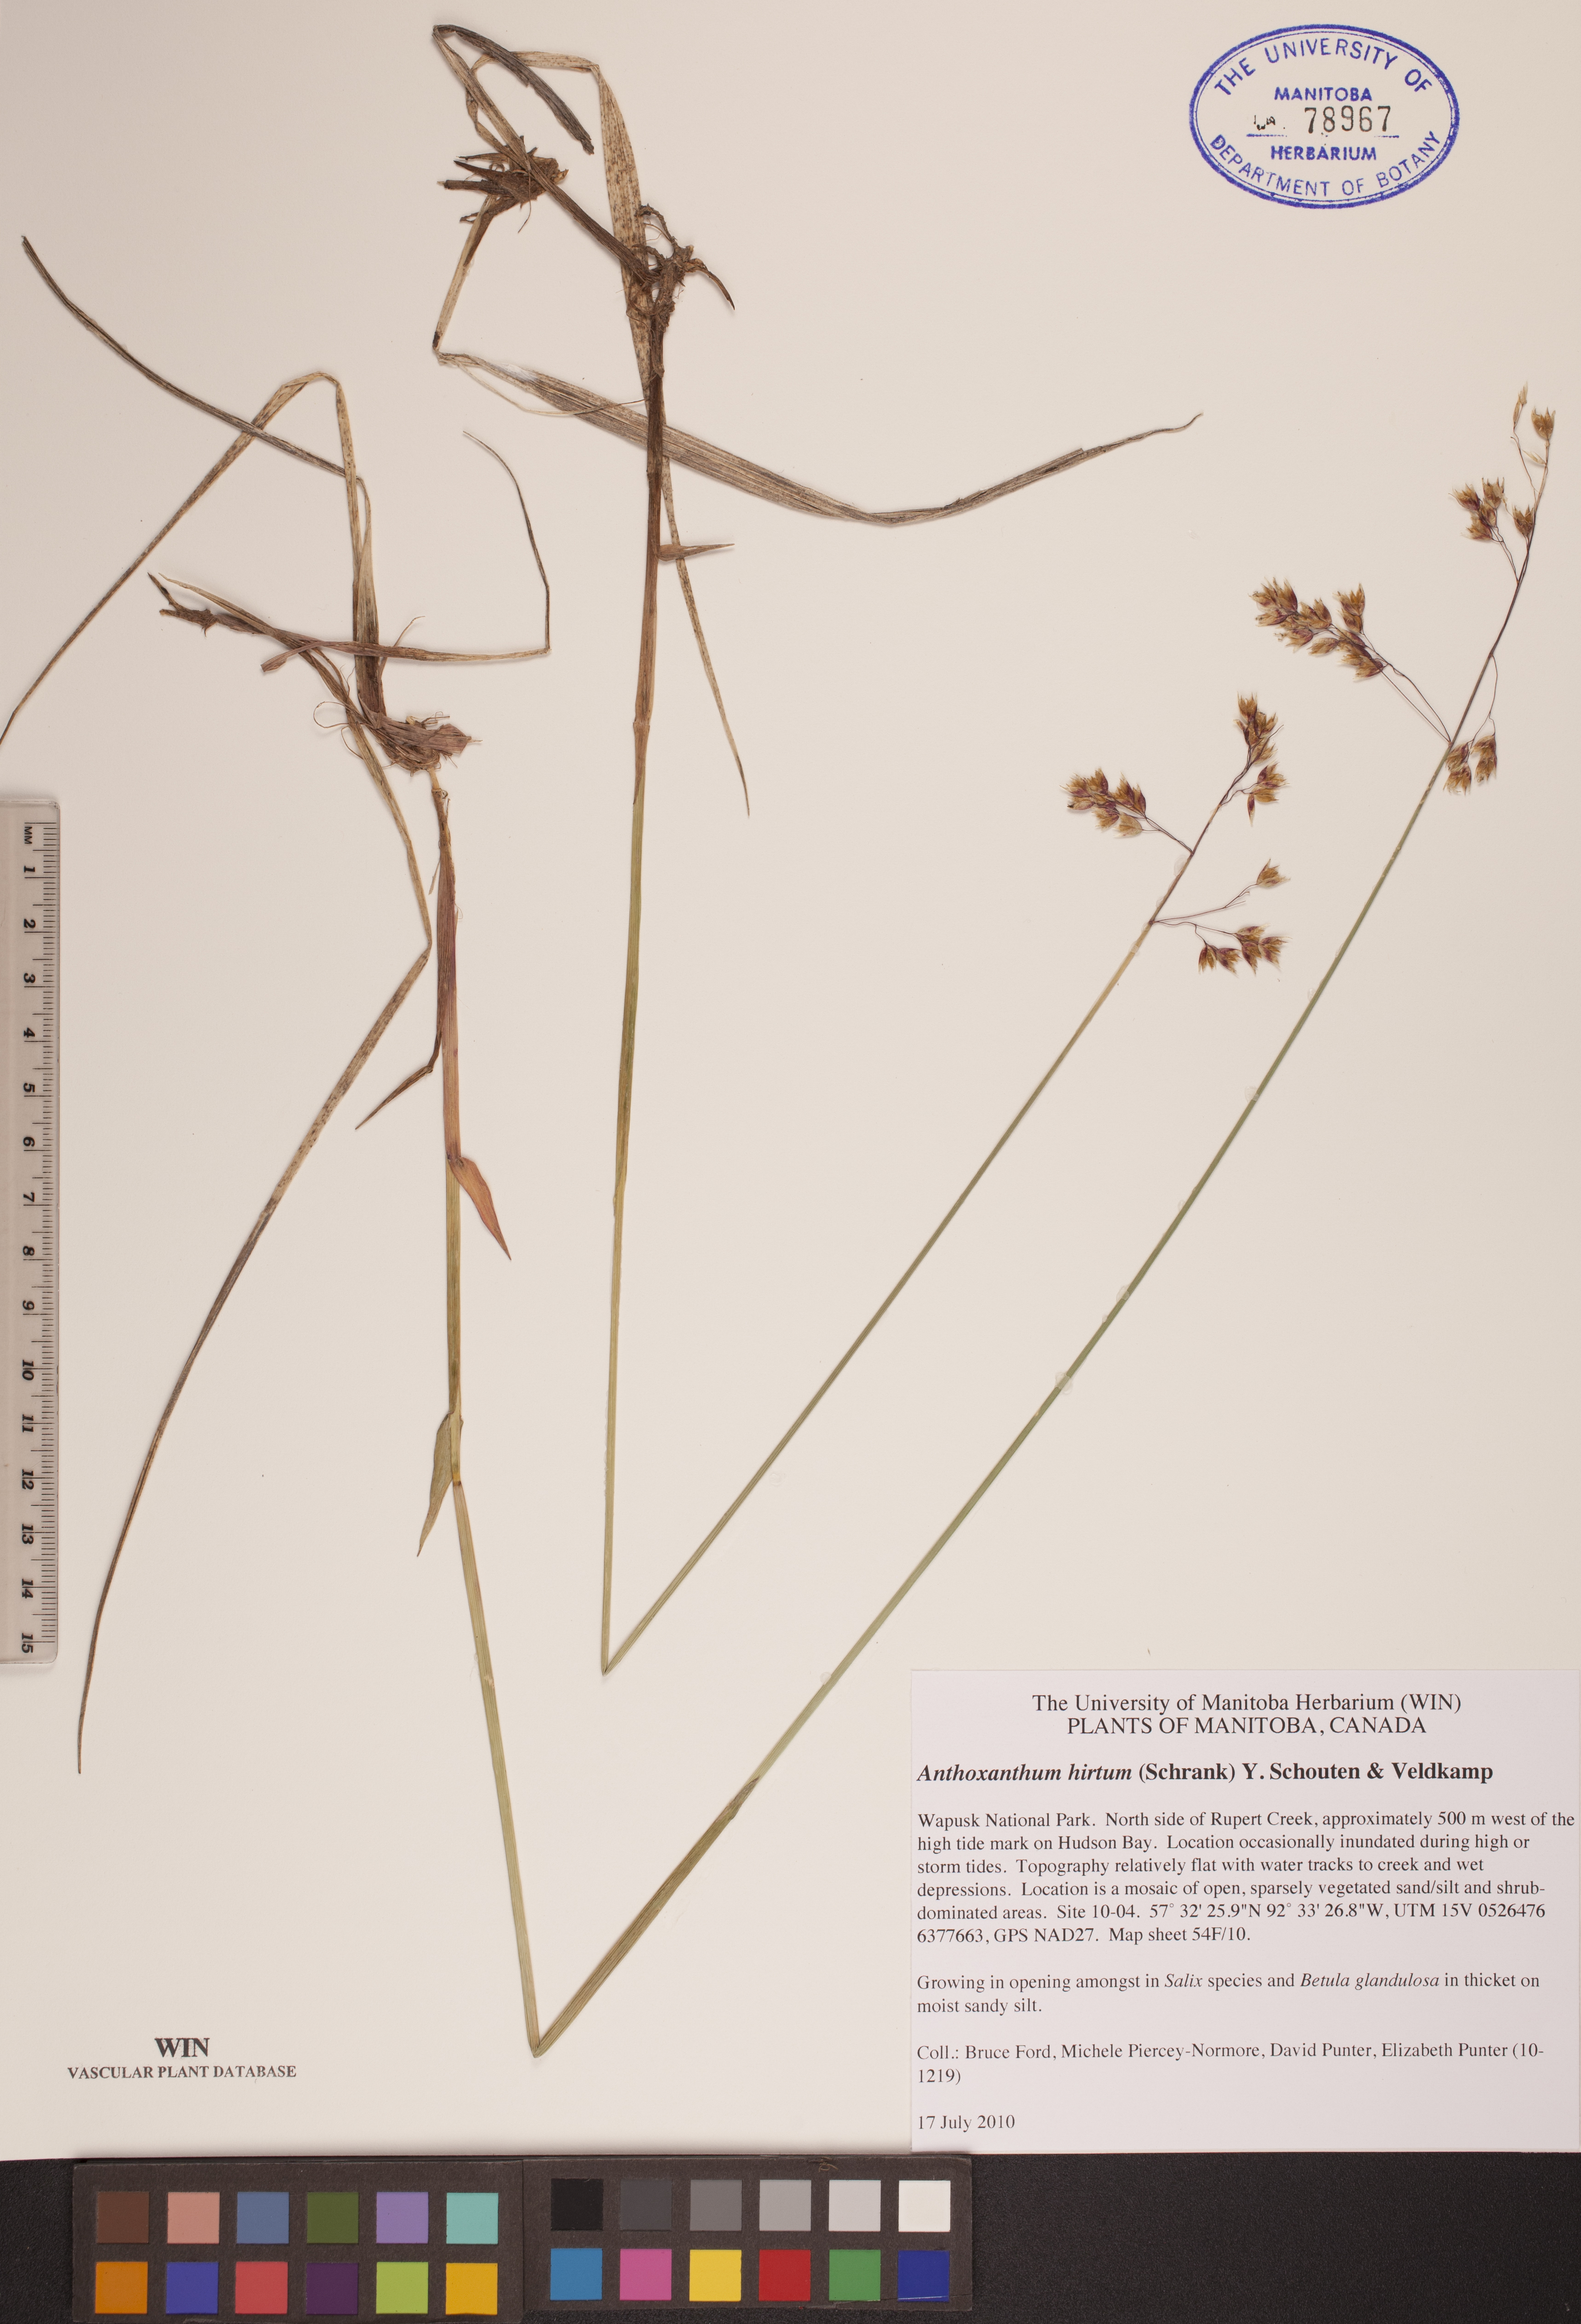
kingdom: Plantae
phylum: Tracheophyta
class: Liliopsida
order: Poales
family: Poaceae
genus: Anthoxanthum
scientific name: Anthoxanthum nitens
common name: Holy grass
